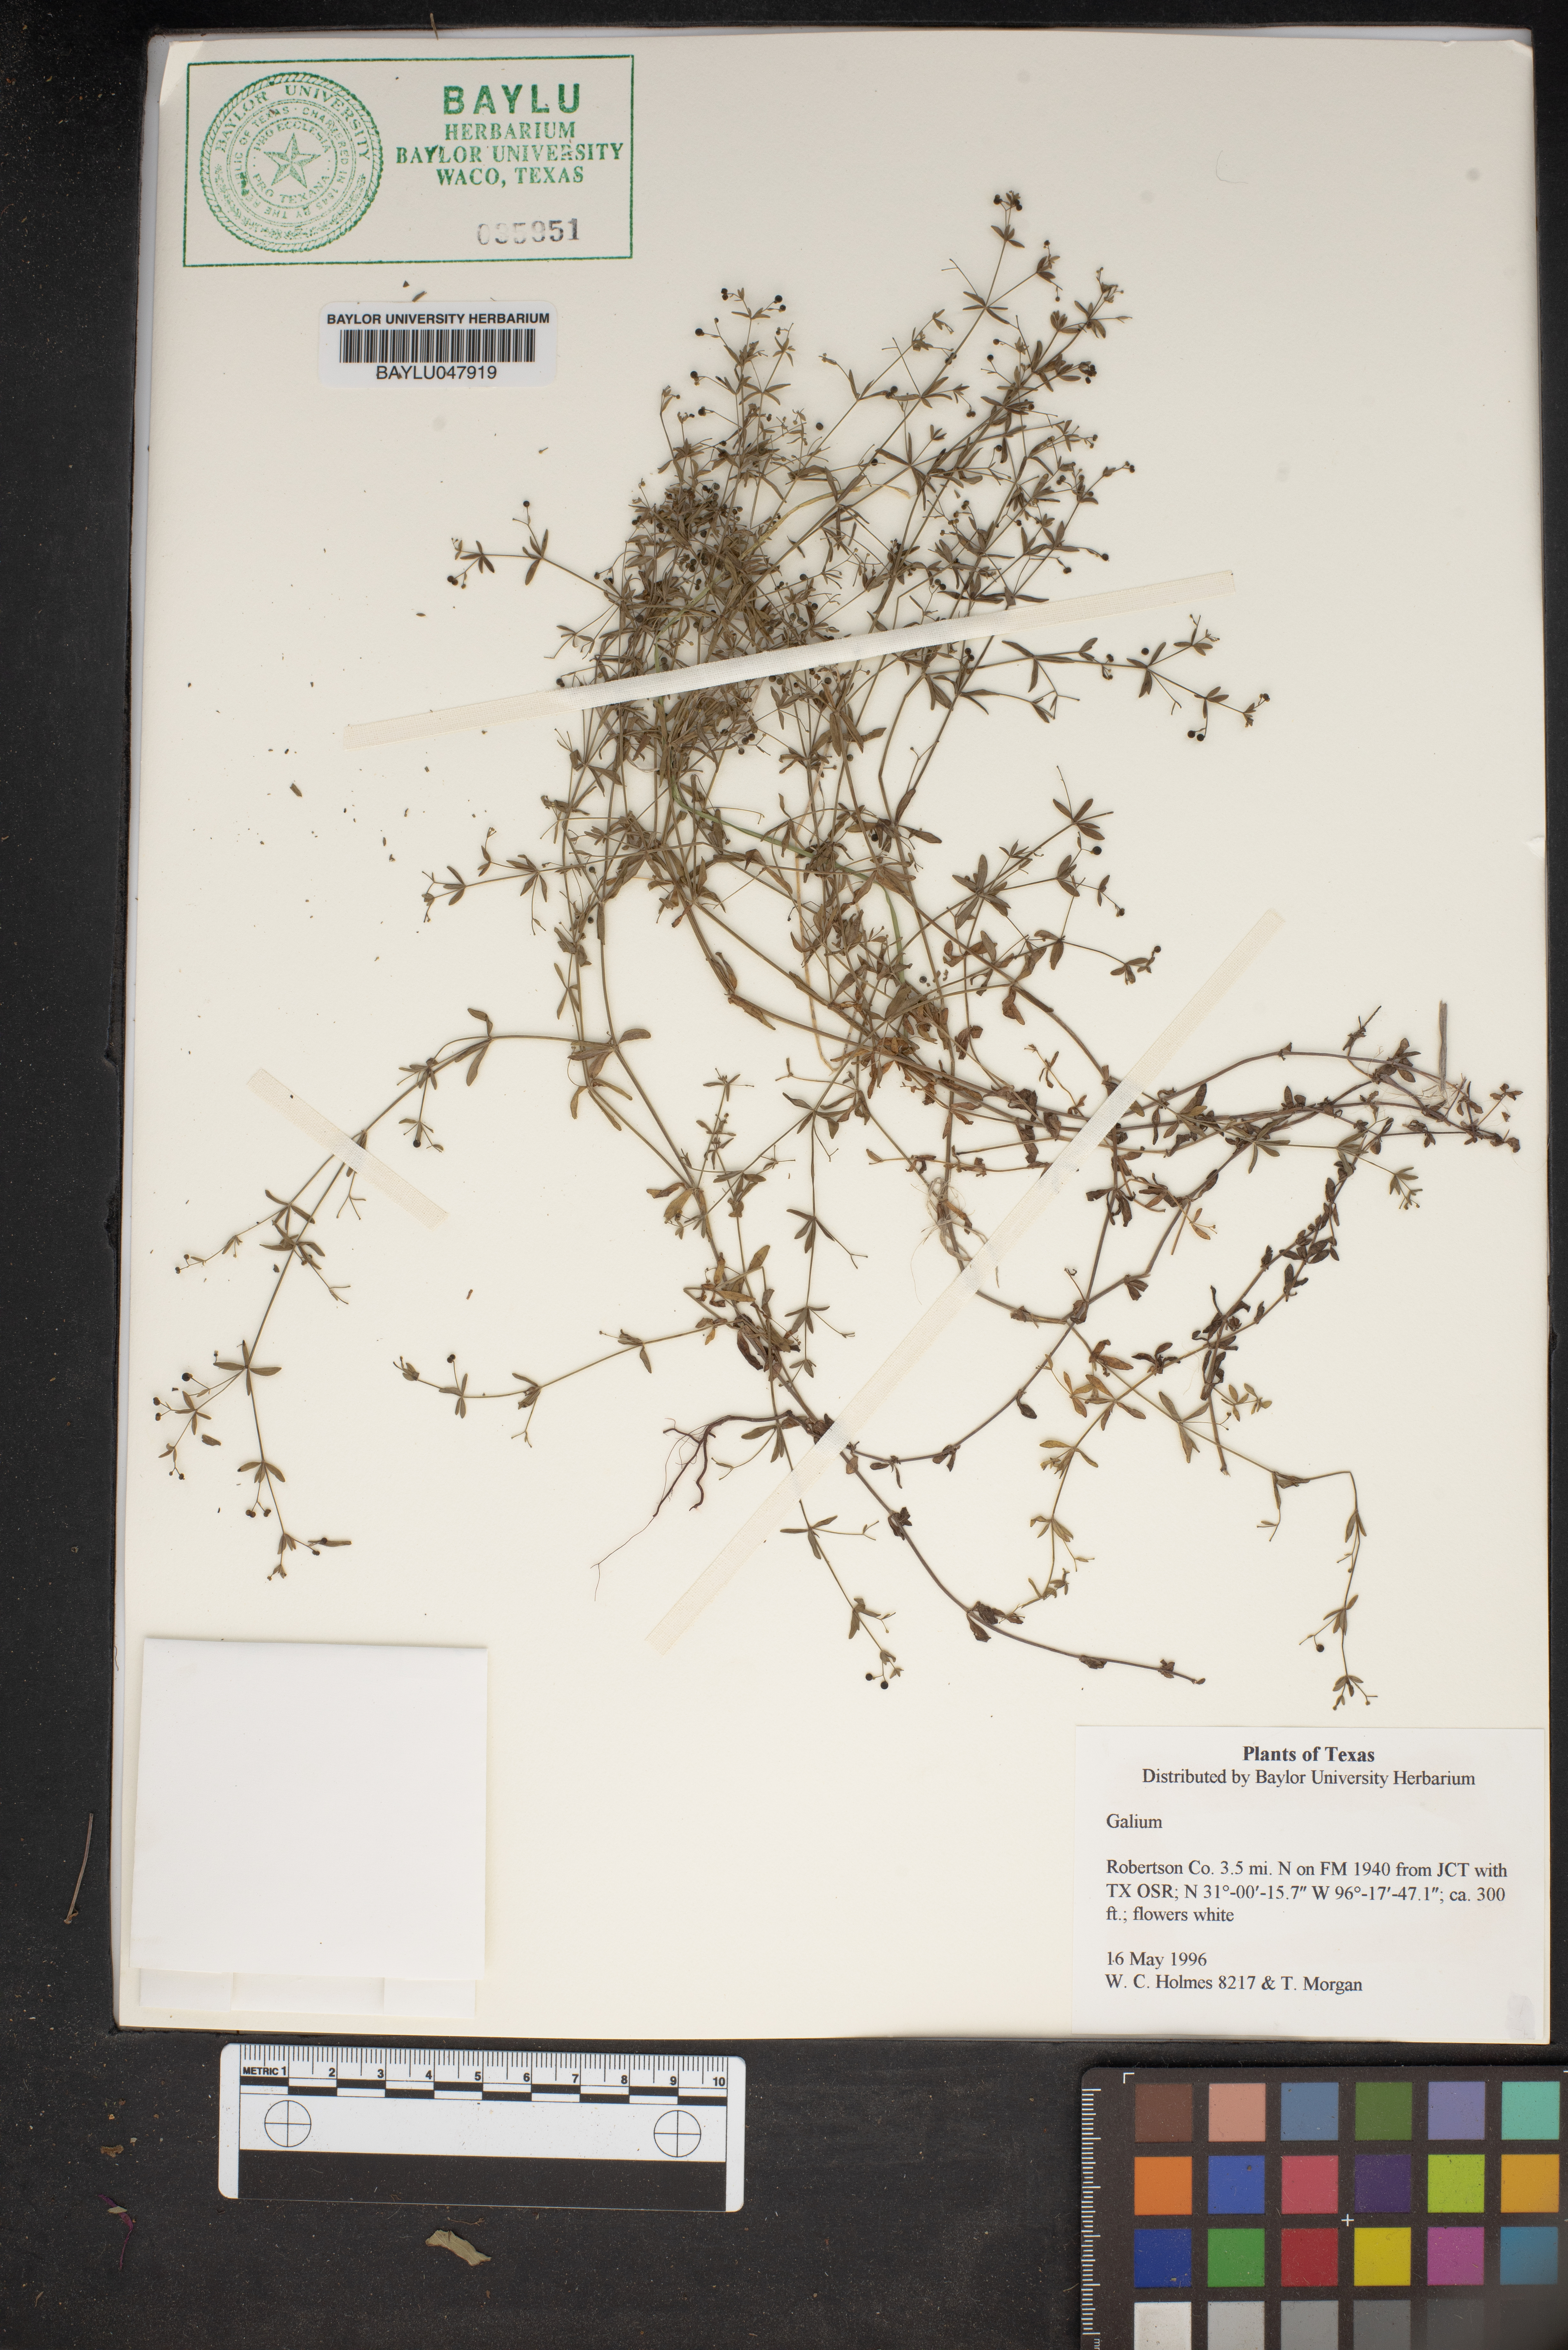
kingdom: Plantae
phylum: Tracheophyta
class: Magnoliopsida
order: Gentianales
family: Rubiaceae
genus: Galium
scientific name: Galium
